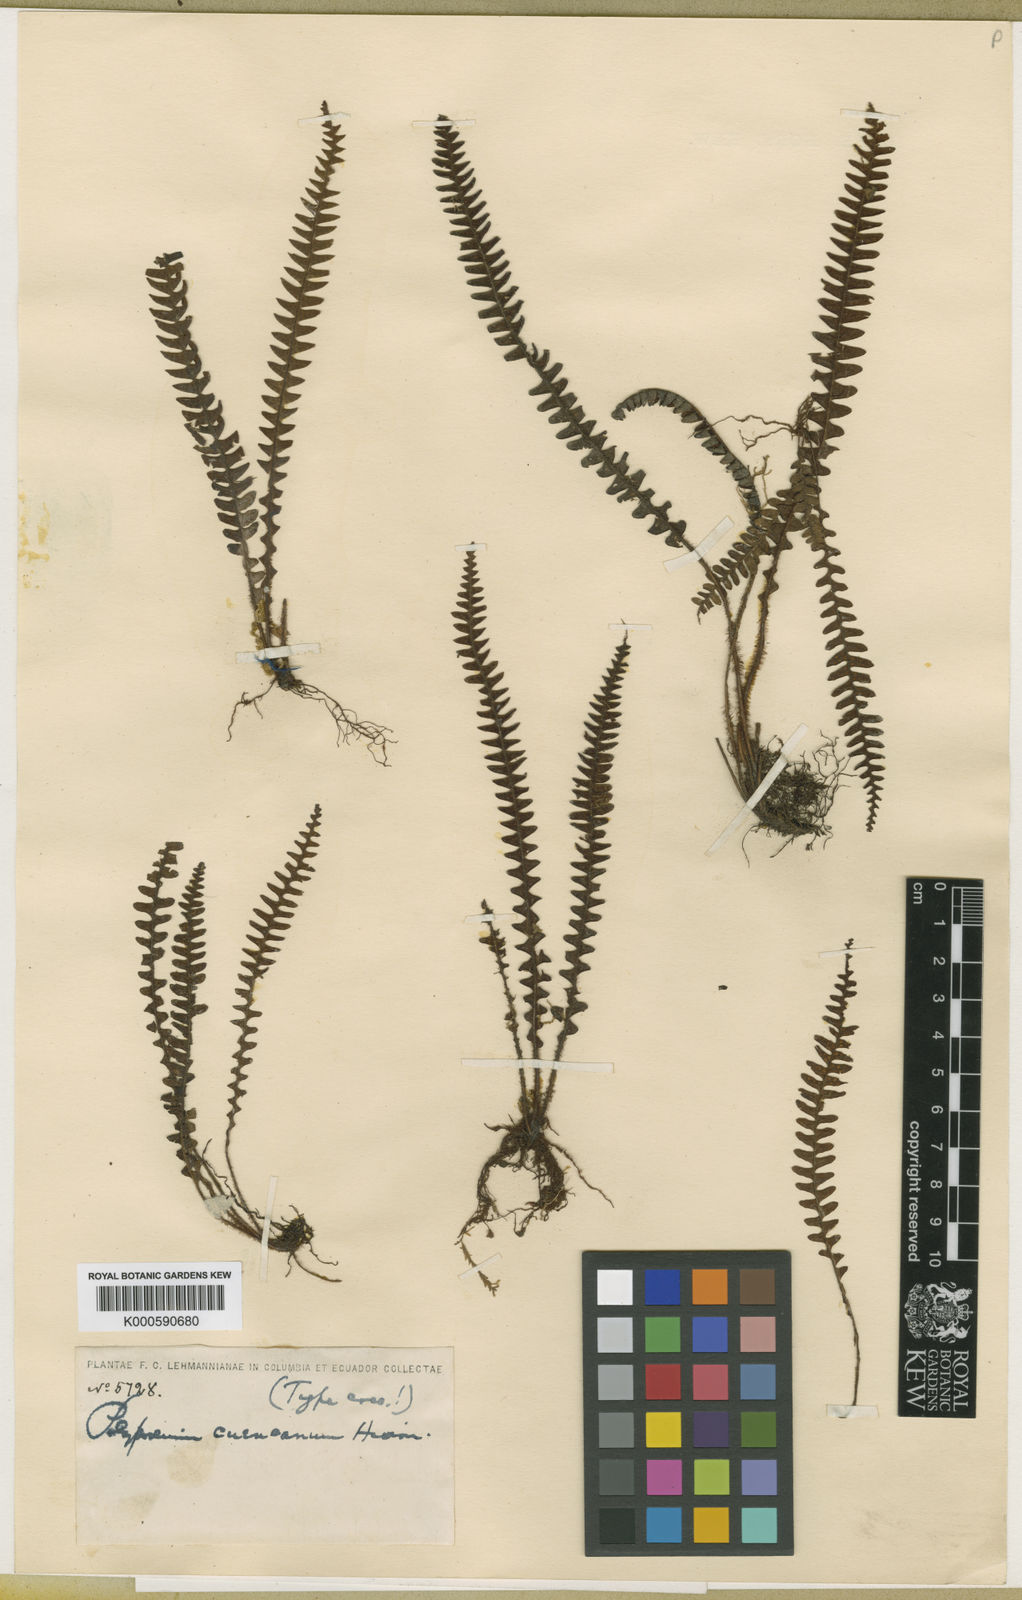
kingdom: Plantae
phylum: Tracheophyta
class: Polypodiopsida
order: Polypodiales
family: Polypodiaceae
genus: Terpsichore
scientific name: Terpsichore
